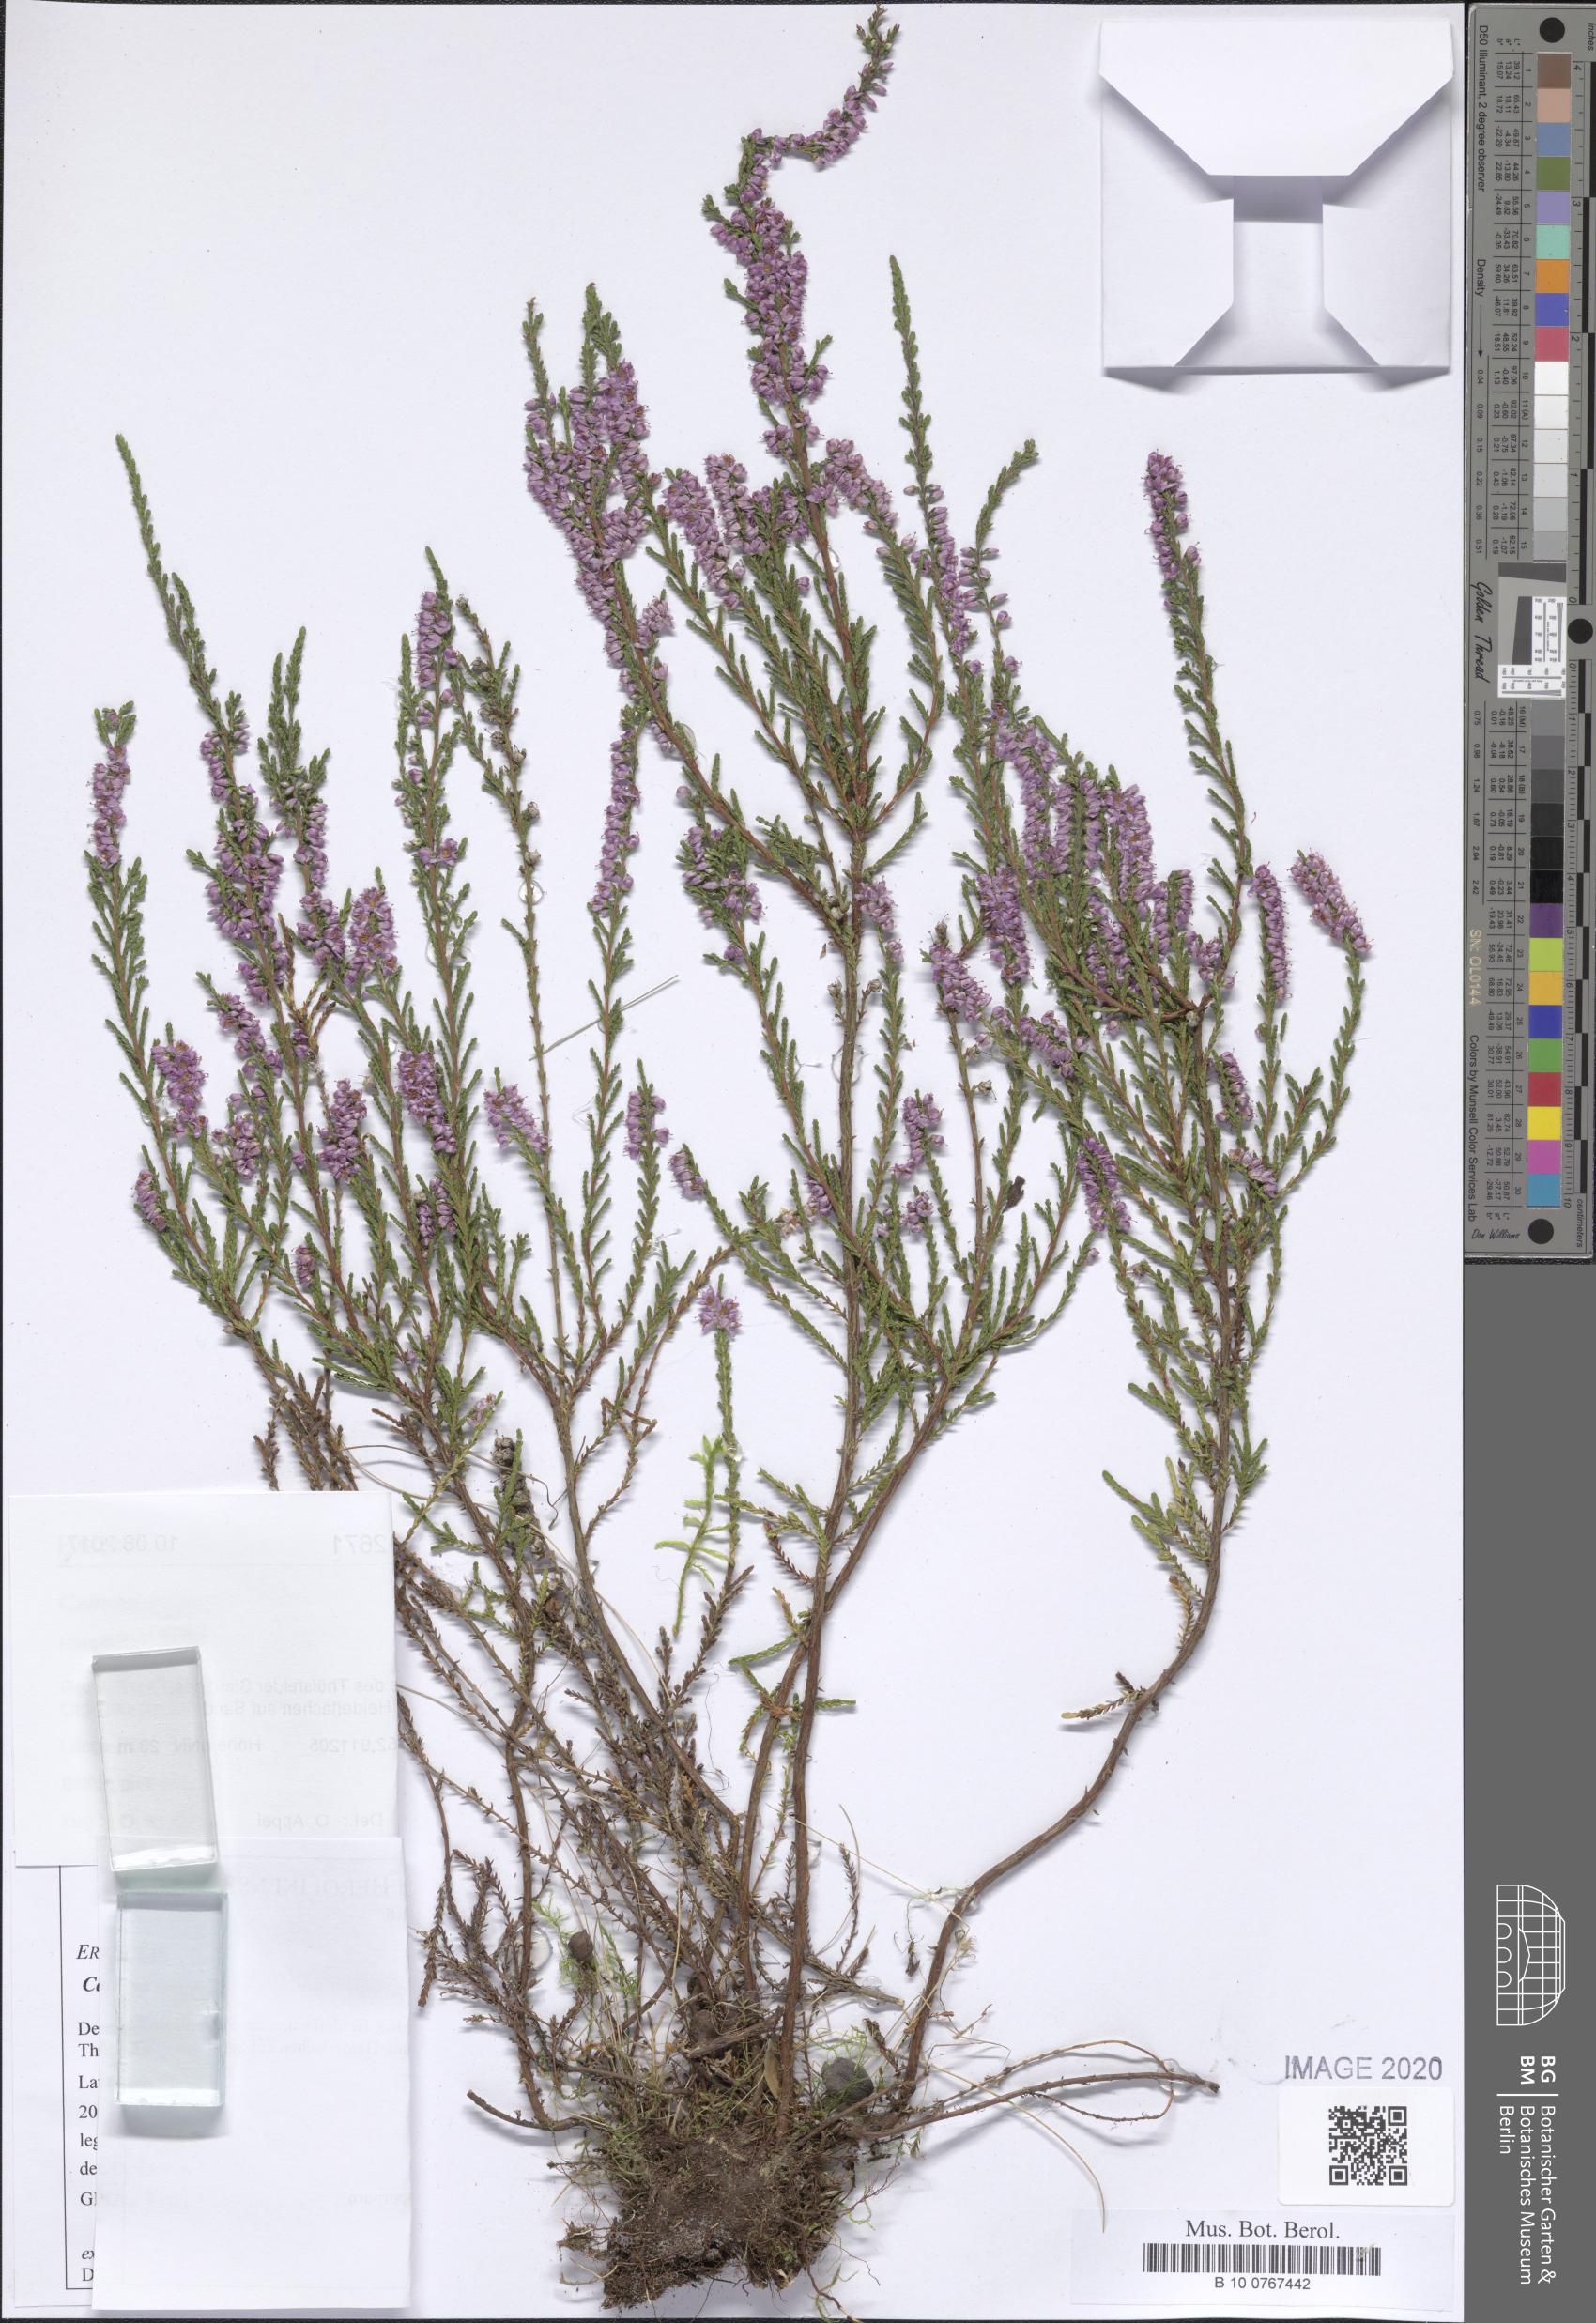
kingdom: Plantae
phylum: Tracheophyta
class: Magnoliopsida
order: Ericales
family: Ericaceae
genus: Calluna
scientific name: Calluna vulgaris
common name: Heather
